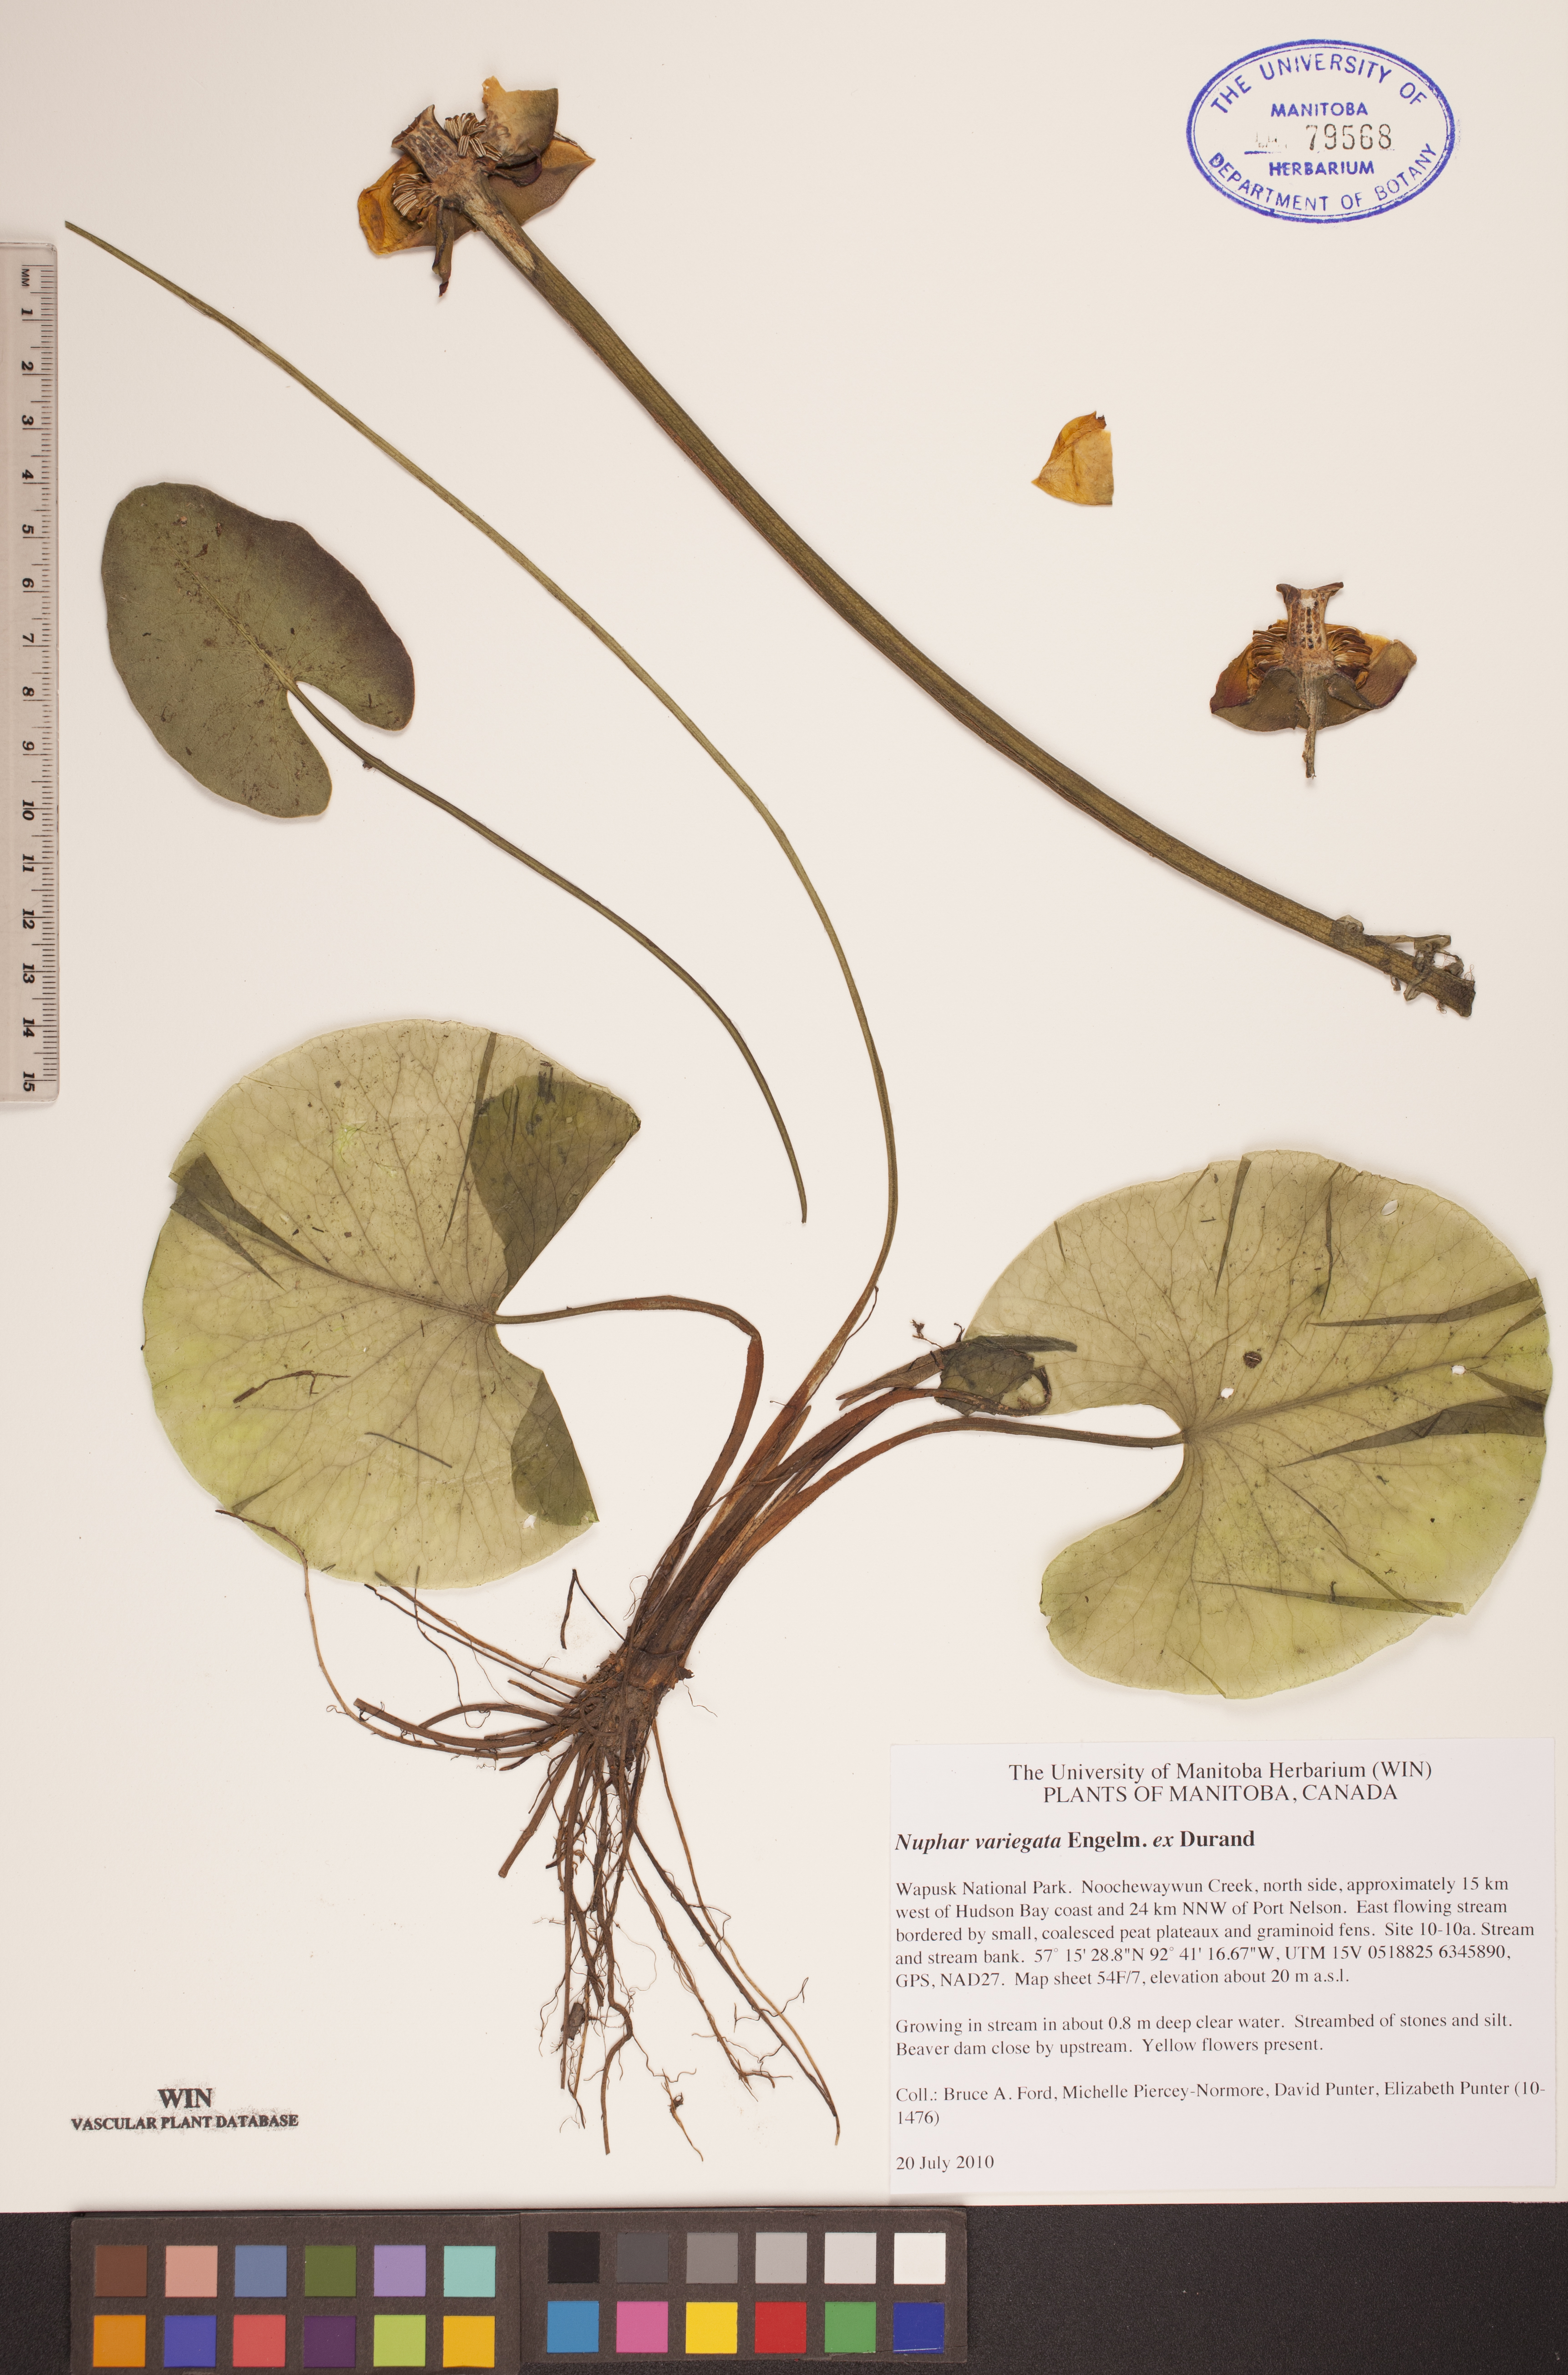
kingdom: Plantae
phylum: Tracheophyta
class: Magnoliopsida
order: Nymphaeales
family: Nymphaeaceae
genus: Nuphar
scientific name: Nuphar variegata
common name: Beaver-root
